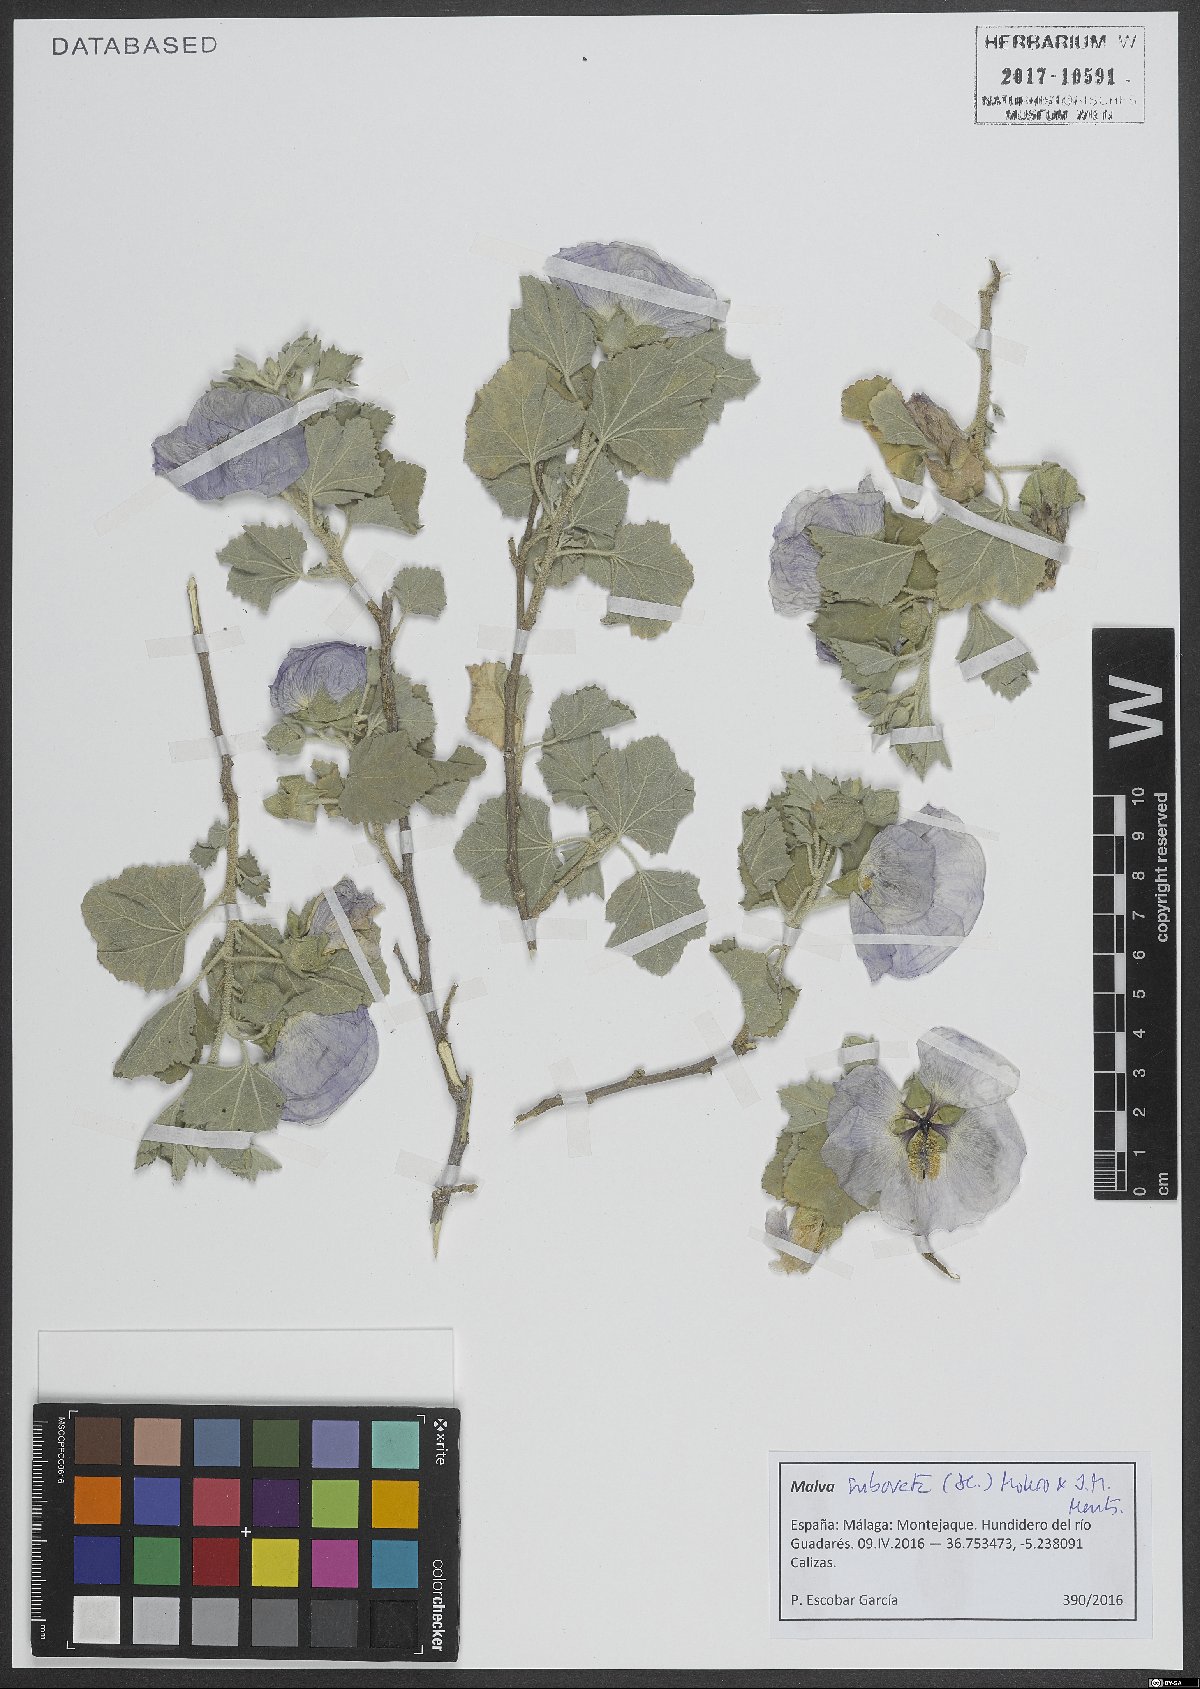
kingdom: Plantae
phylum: Tracheophyta
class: Magnoliopsida
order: Malvales
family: Malvaceae
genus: Malva
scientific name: Malva subovata
